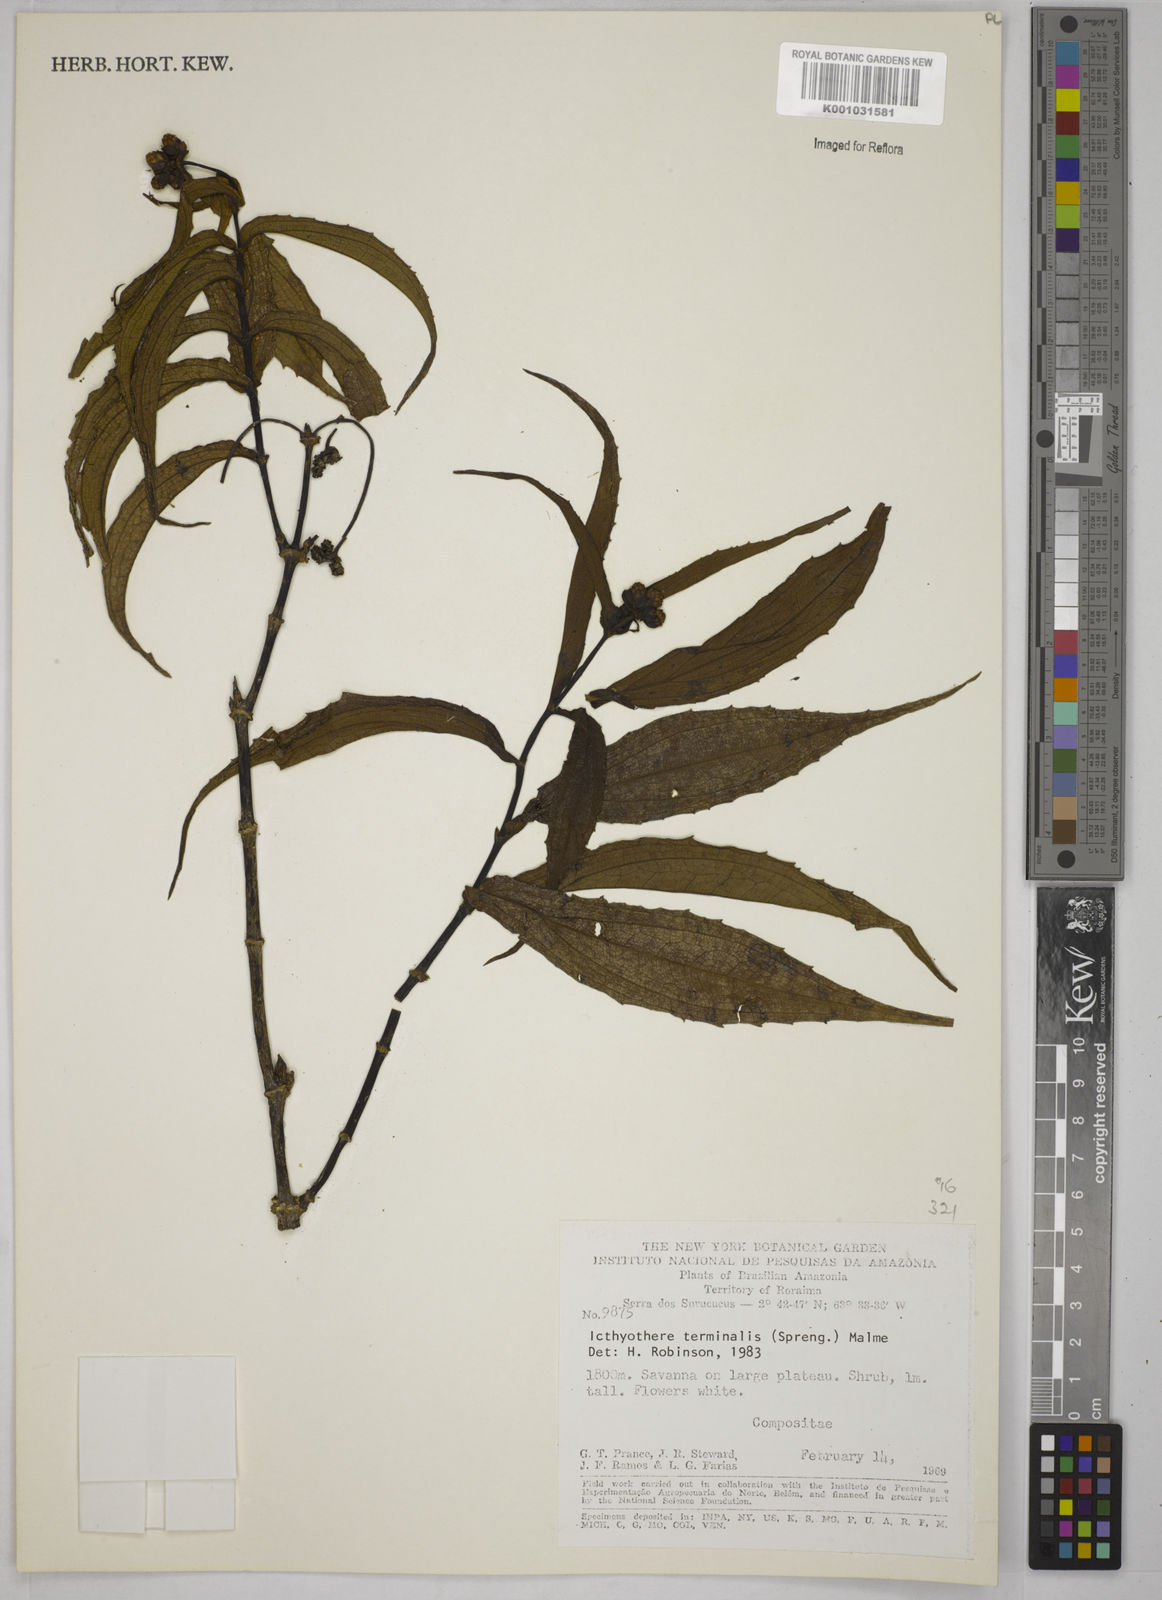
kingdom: Plantae
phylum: Tracheophyta
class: Magnoliopsida
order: Asterales
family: Asteraceae
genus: Ichthyothere
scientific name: Ichthyothere cunabi
